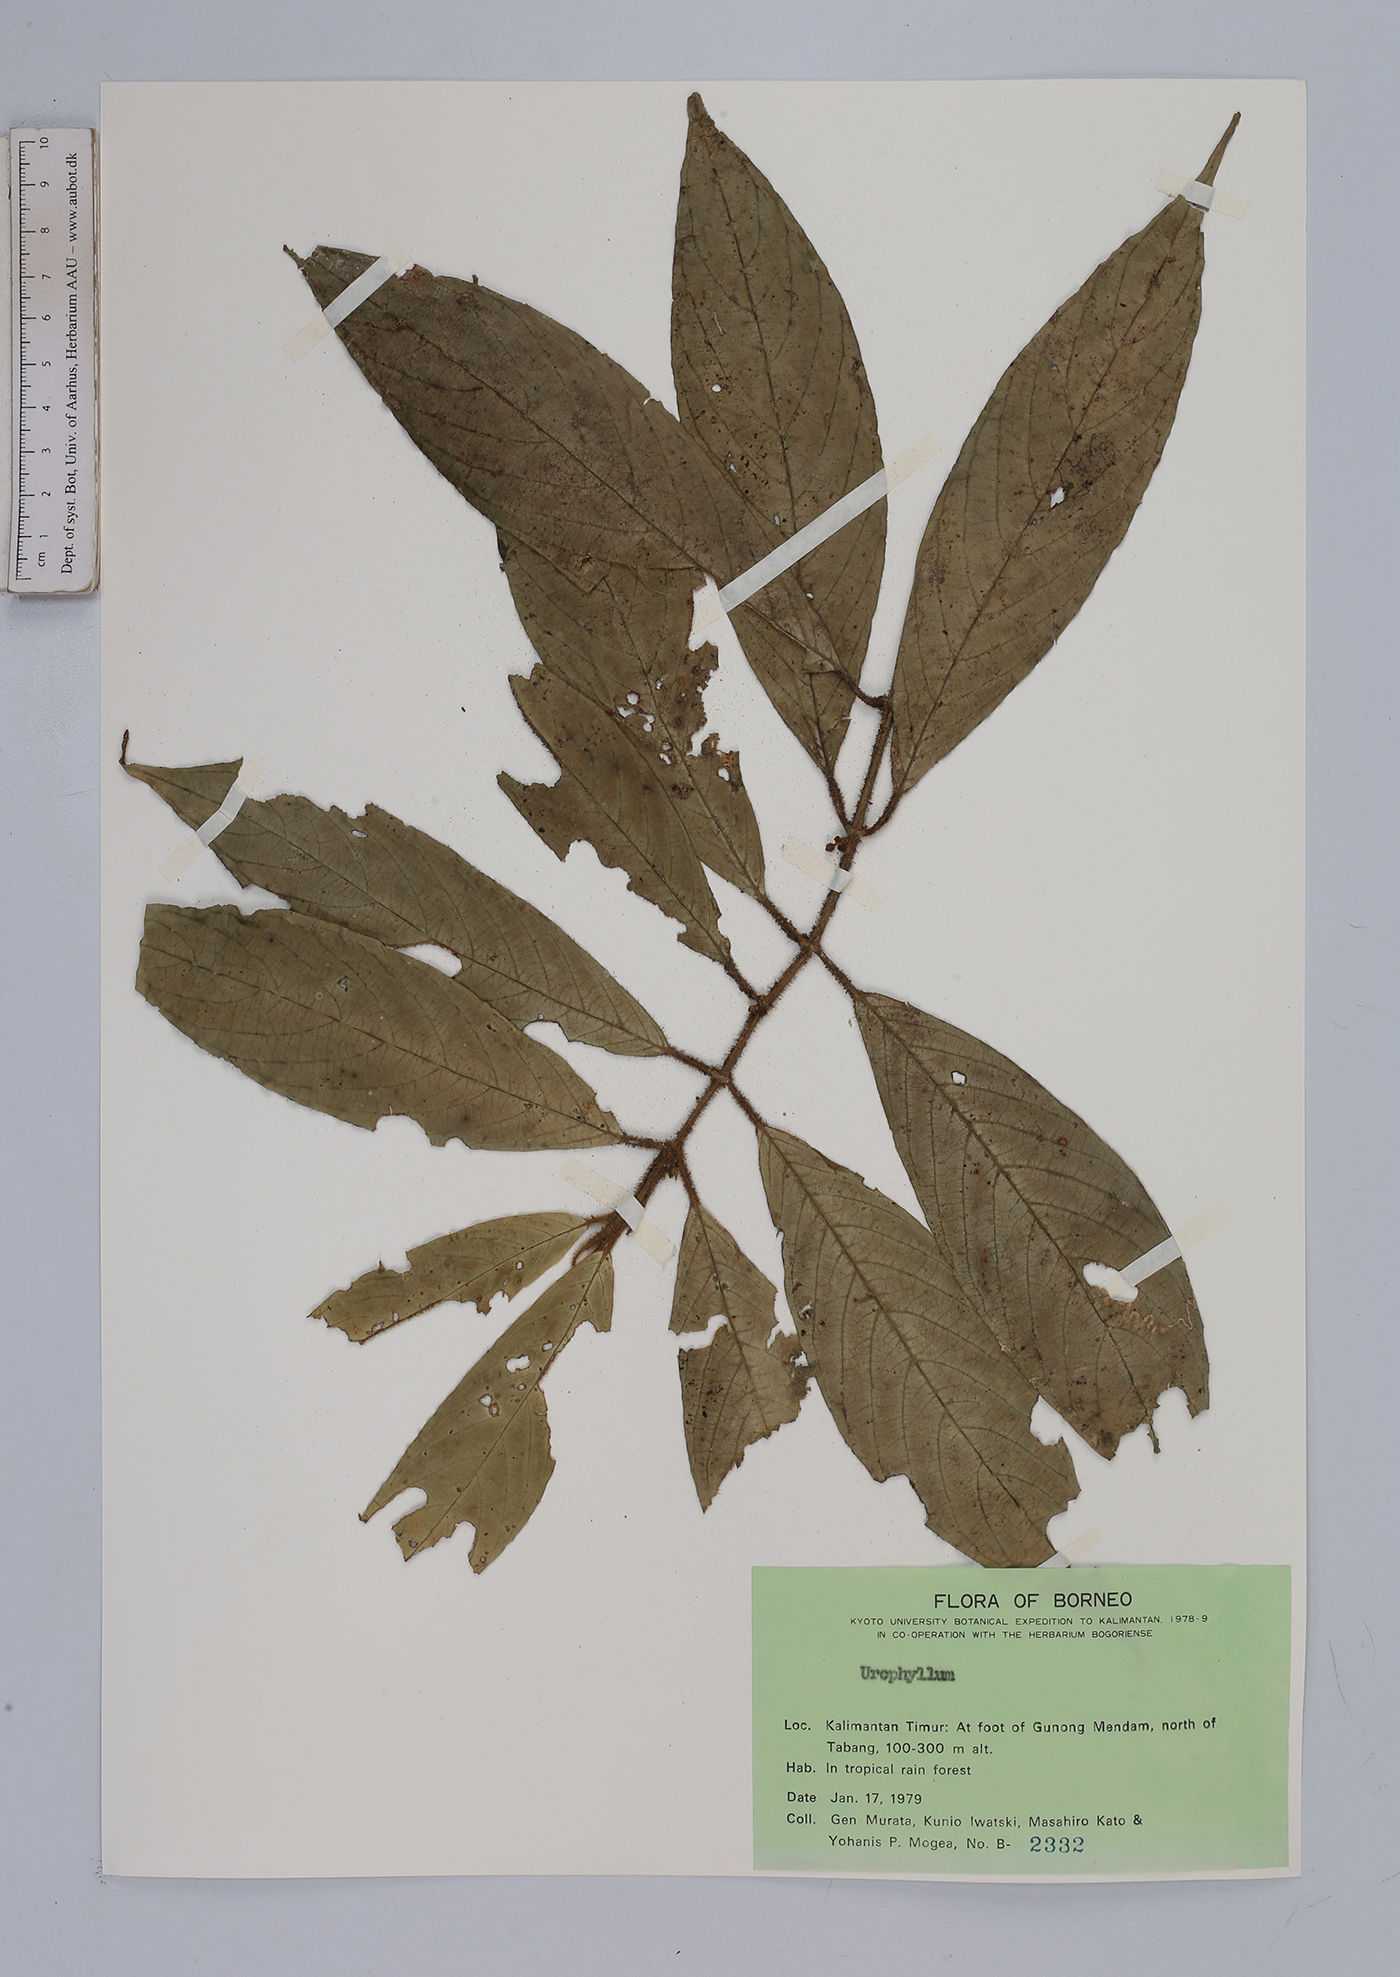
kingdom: Plantae
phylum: Tracheophyta
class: Magnoliopsida
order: Gentianales
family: Rubiaceae
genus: Urophyllum
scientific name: Urophyllum
